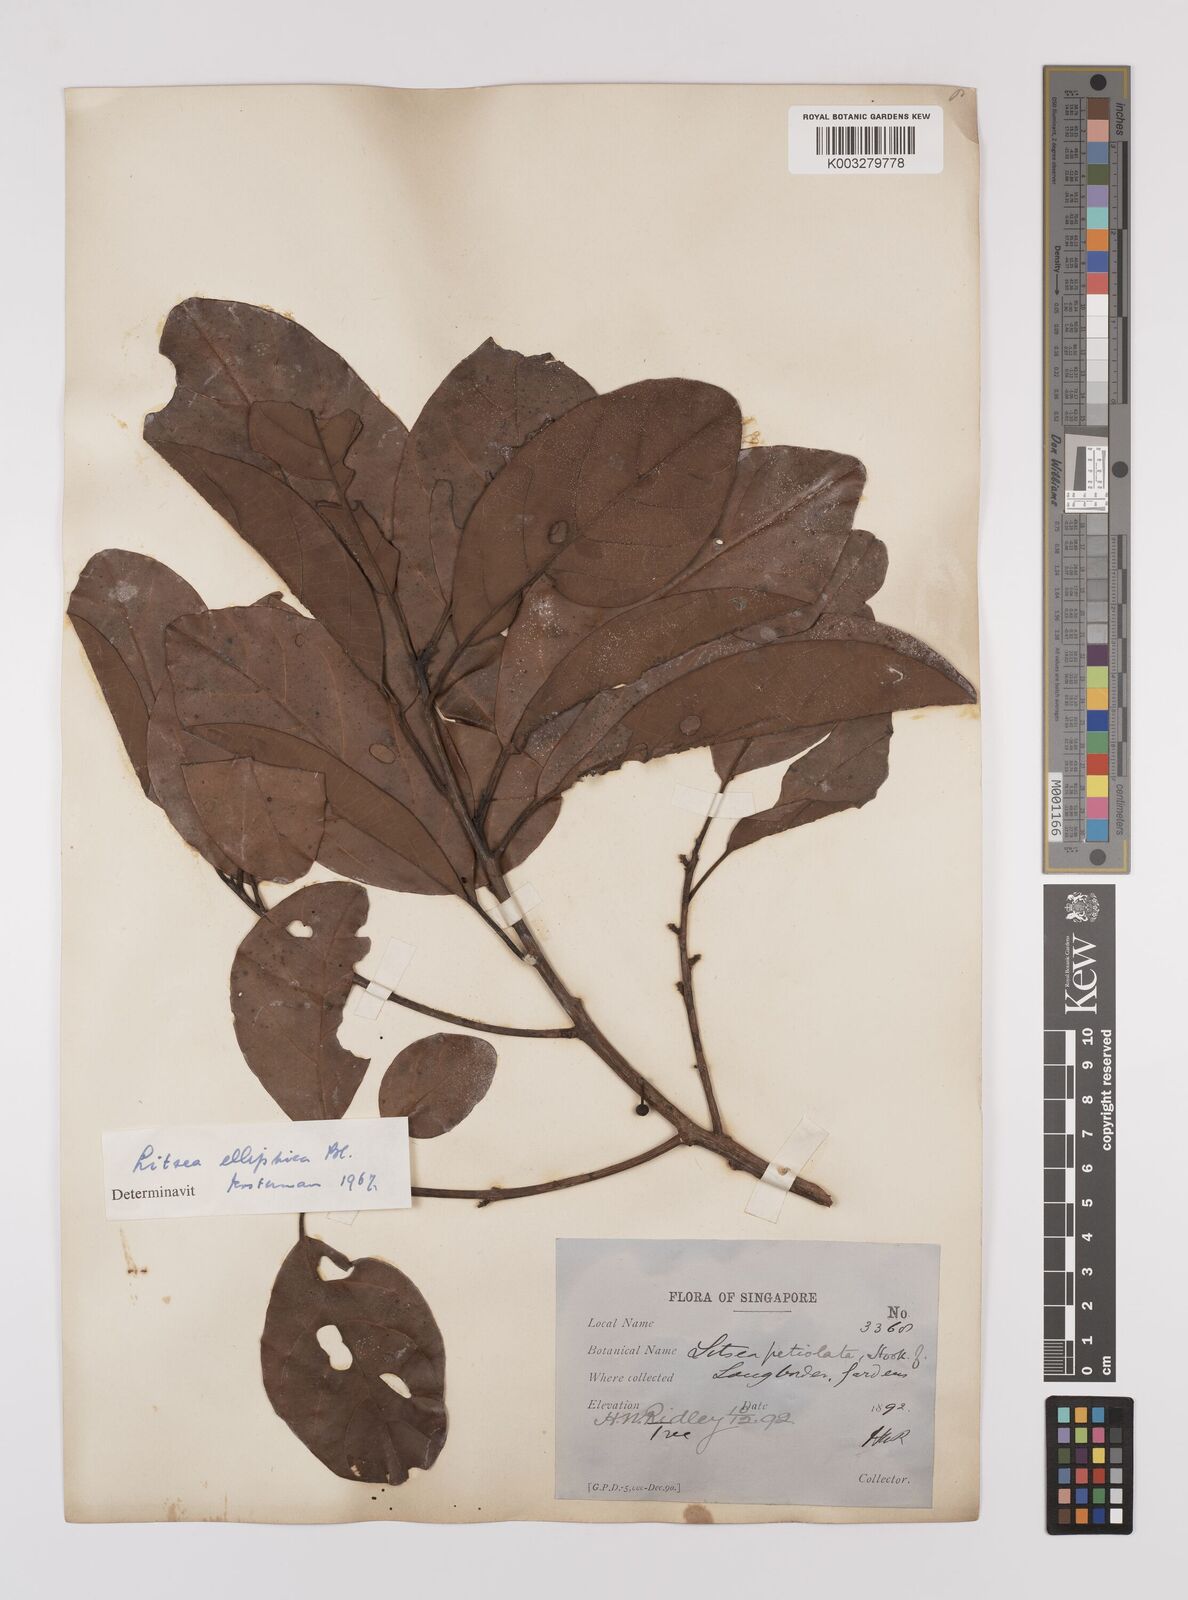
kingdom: Plantae
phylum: Tracheophyta
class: Magnoliopsida
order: Laurales
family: Lauraceae
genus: Litsea
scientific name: Litsea elliptica
